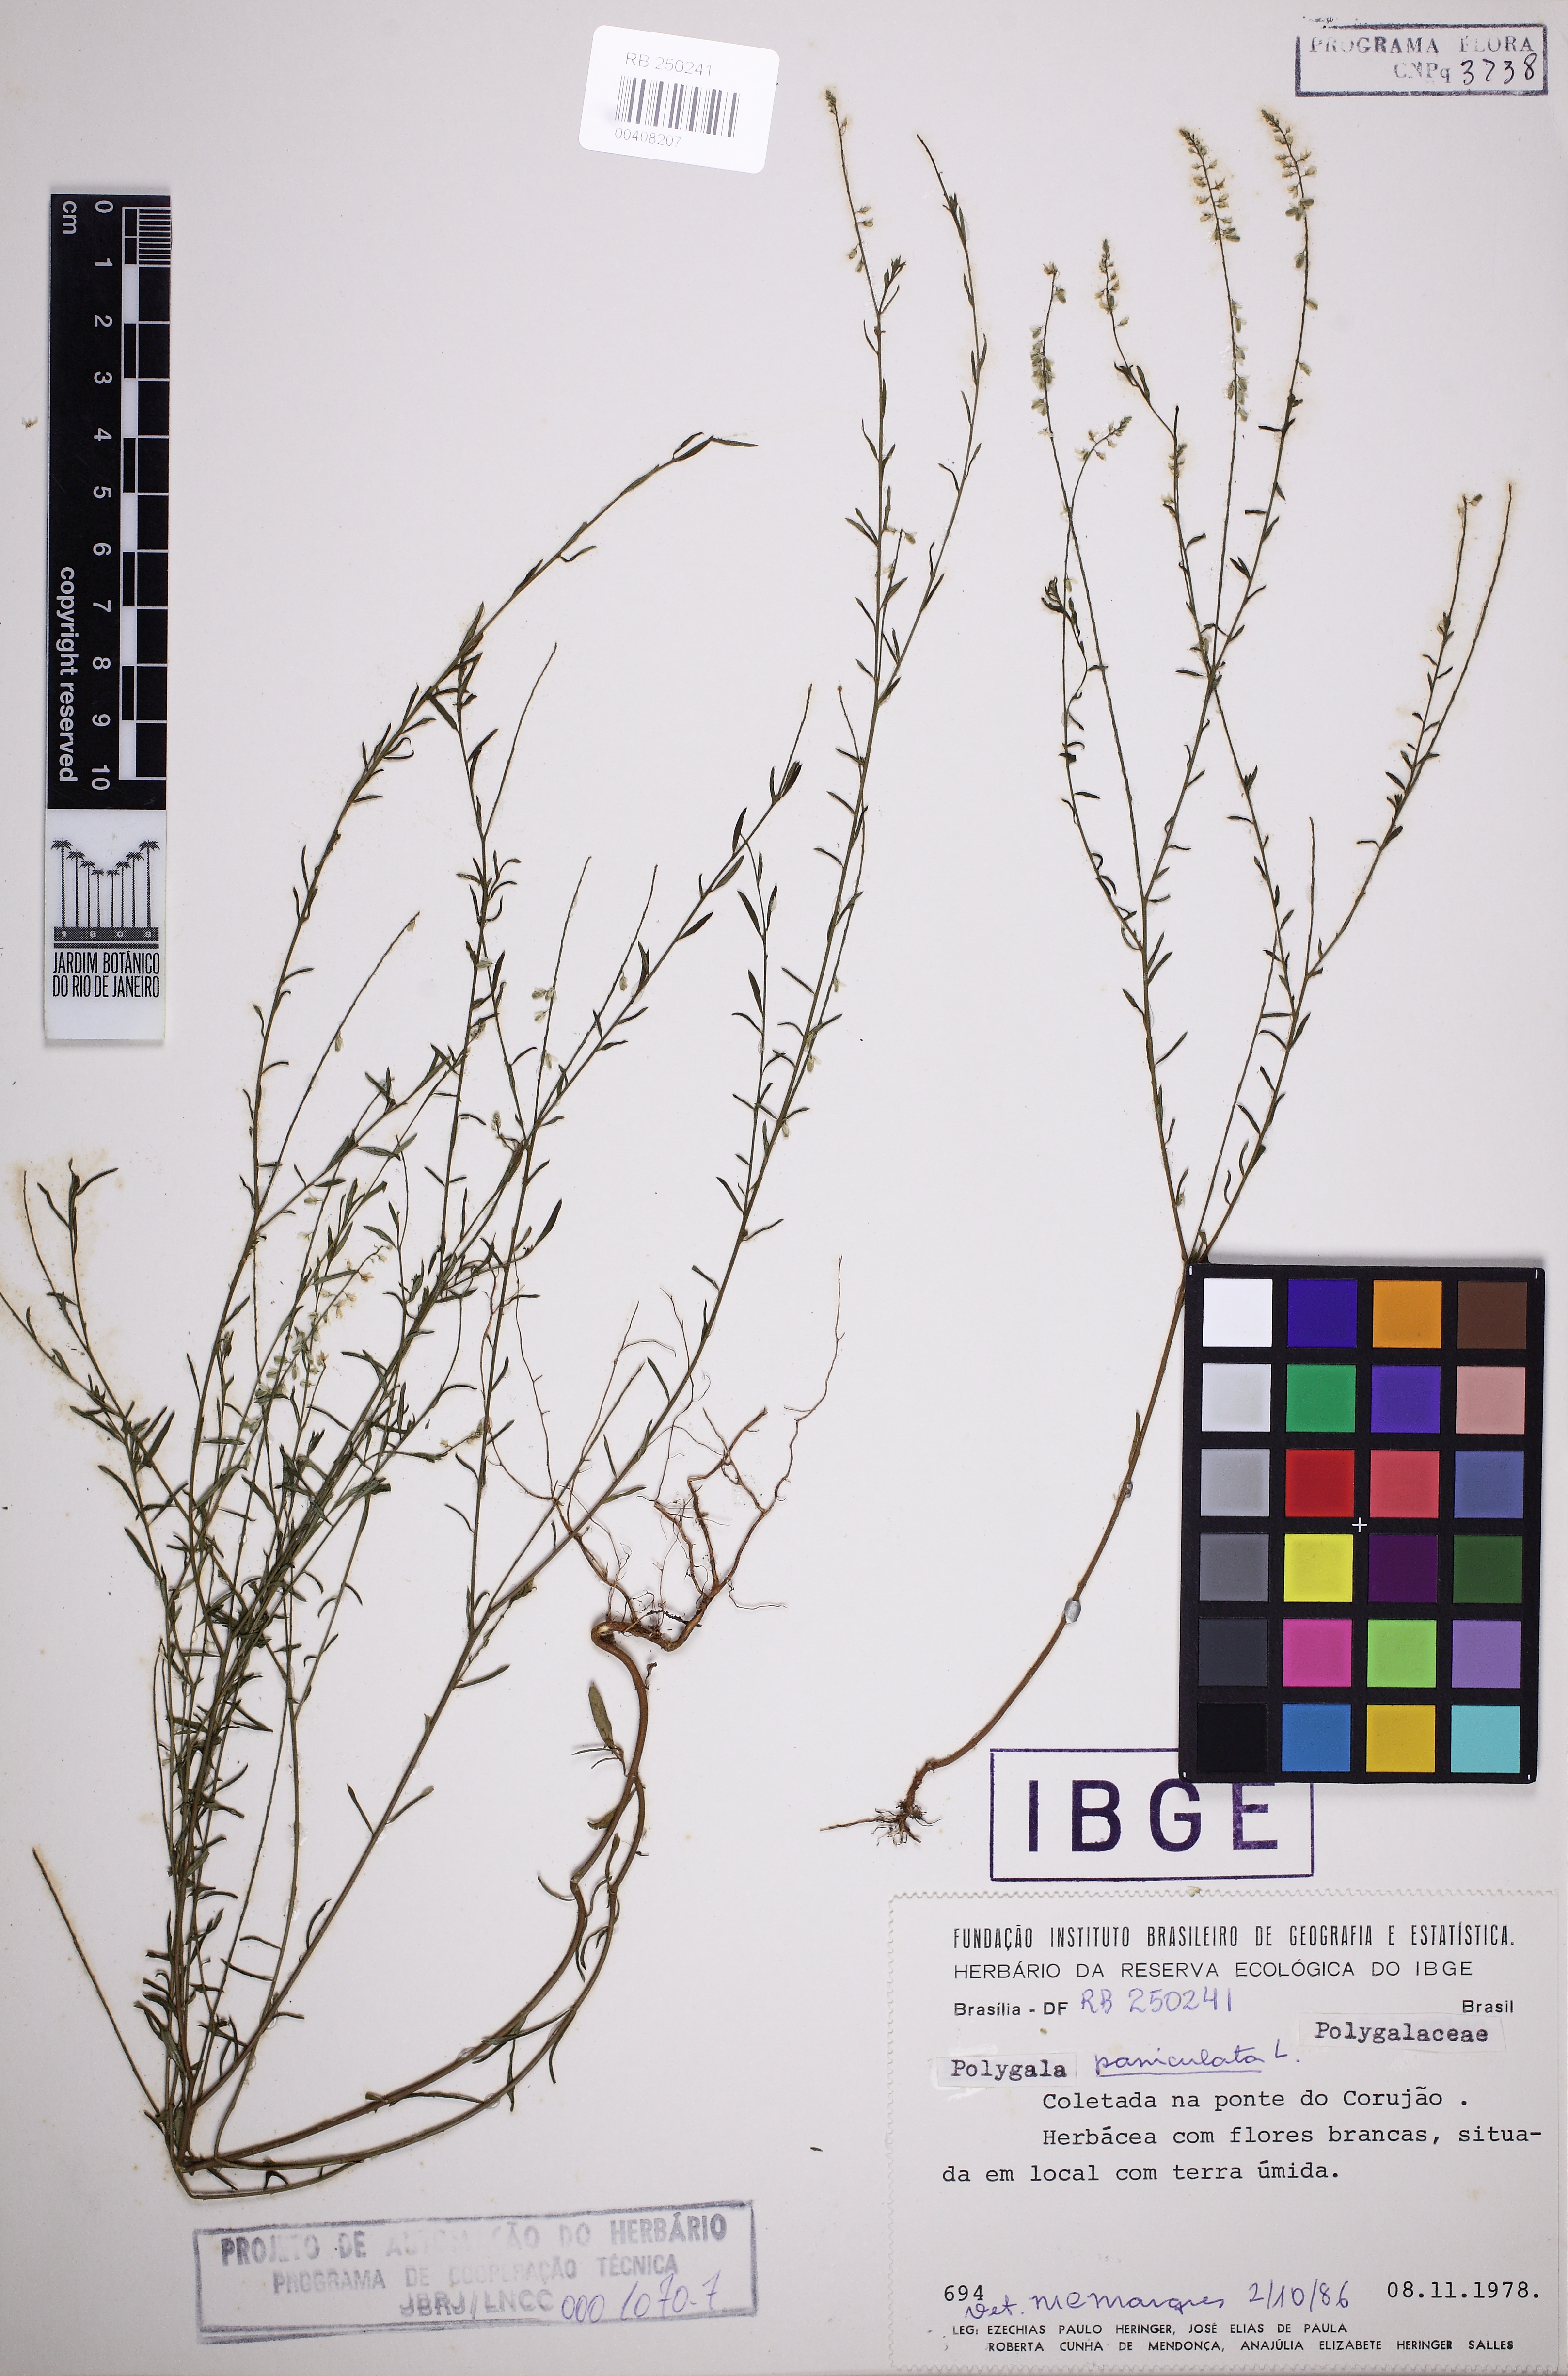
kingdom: Plantae
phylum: Tracheophyta
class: Magnoliopsida
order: Fabales
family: Polygalaceae
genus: Polygala
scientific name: Polygala paniculata
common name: Orosne
